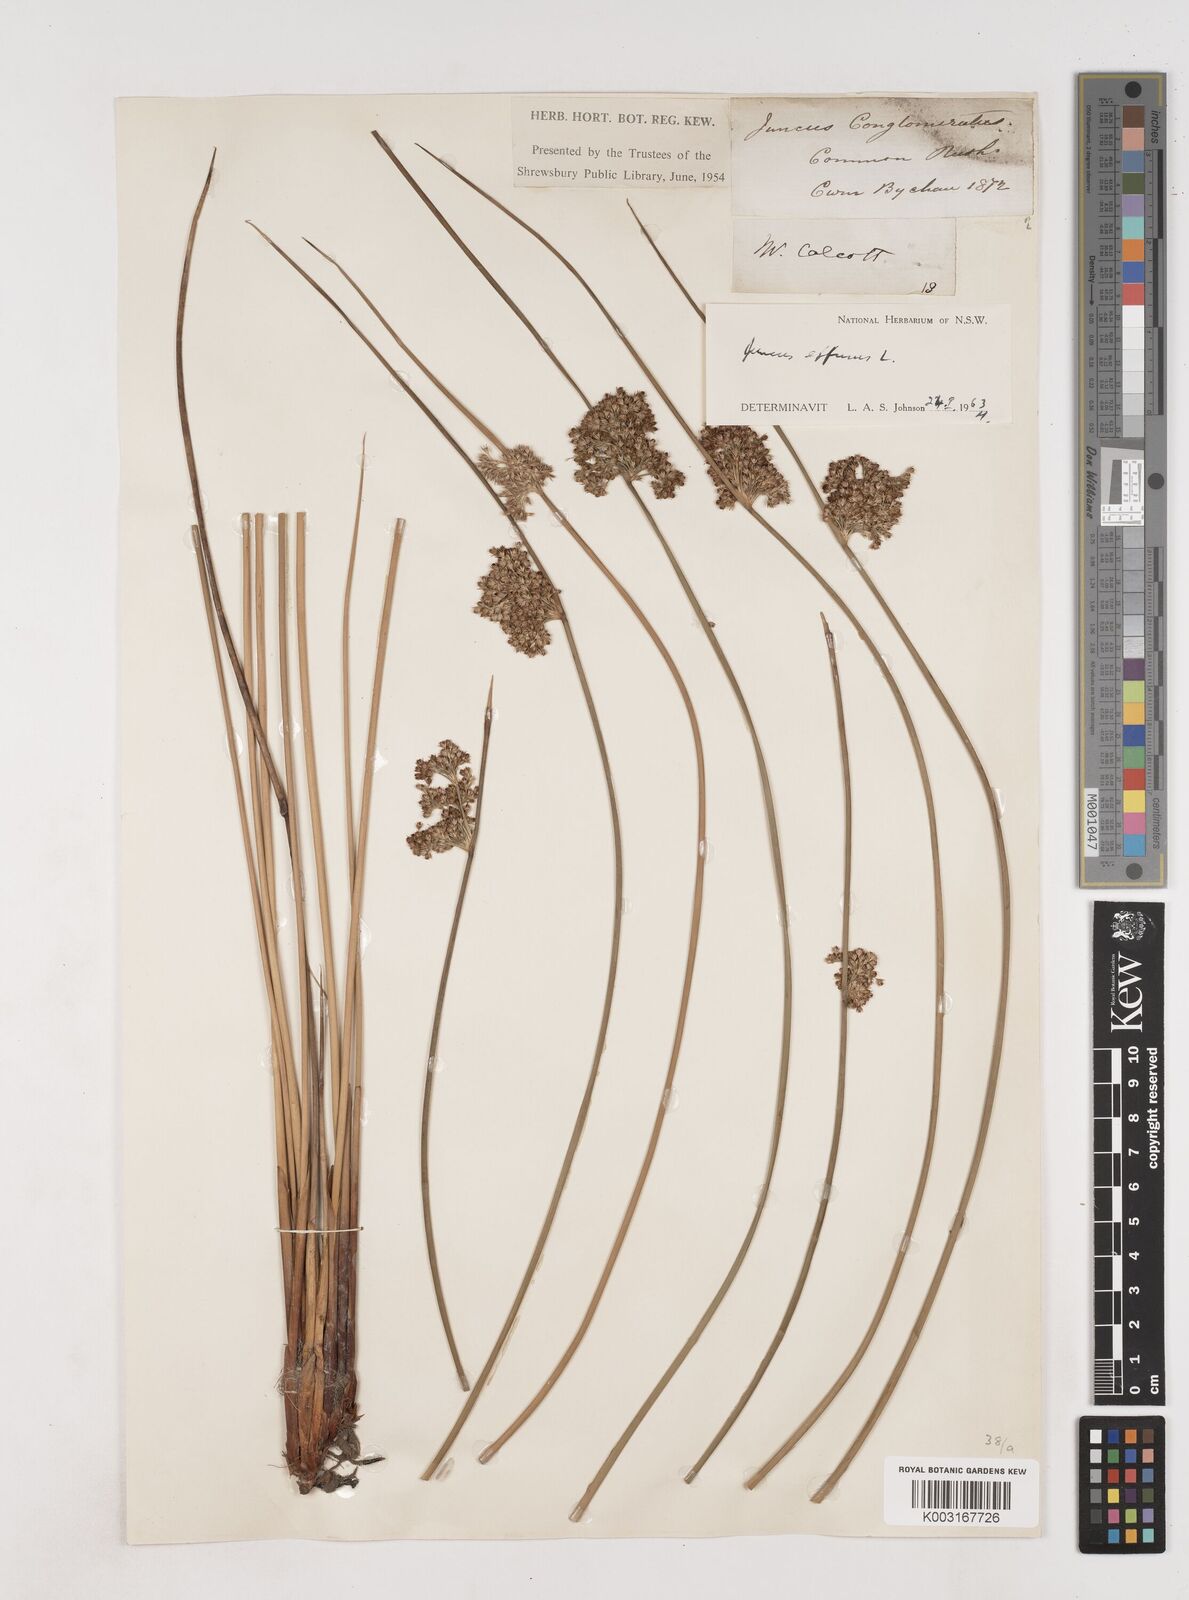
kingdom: Plantae
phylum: Tracheophyta
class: Liliopsida
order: Poales
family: Juncaceae
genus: Juncus
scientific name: Juncus effusus
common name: Soft rush
